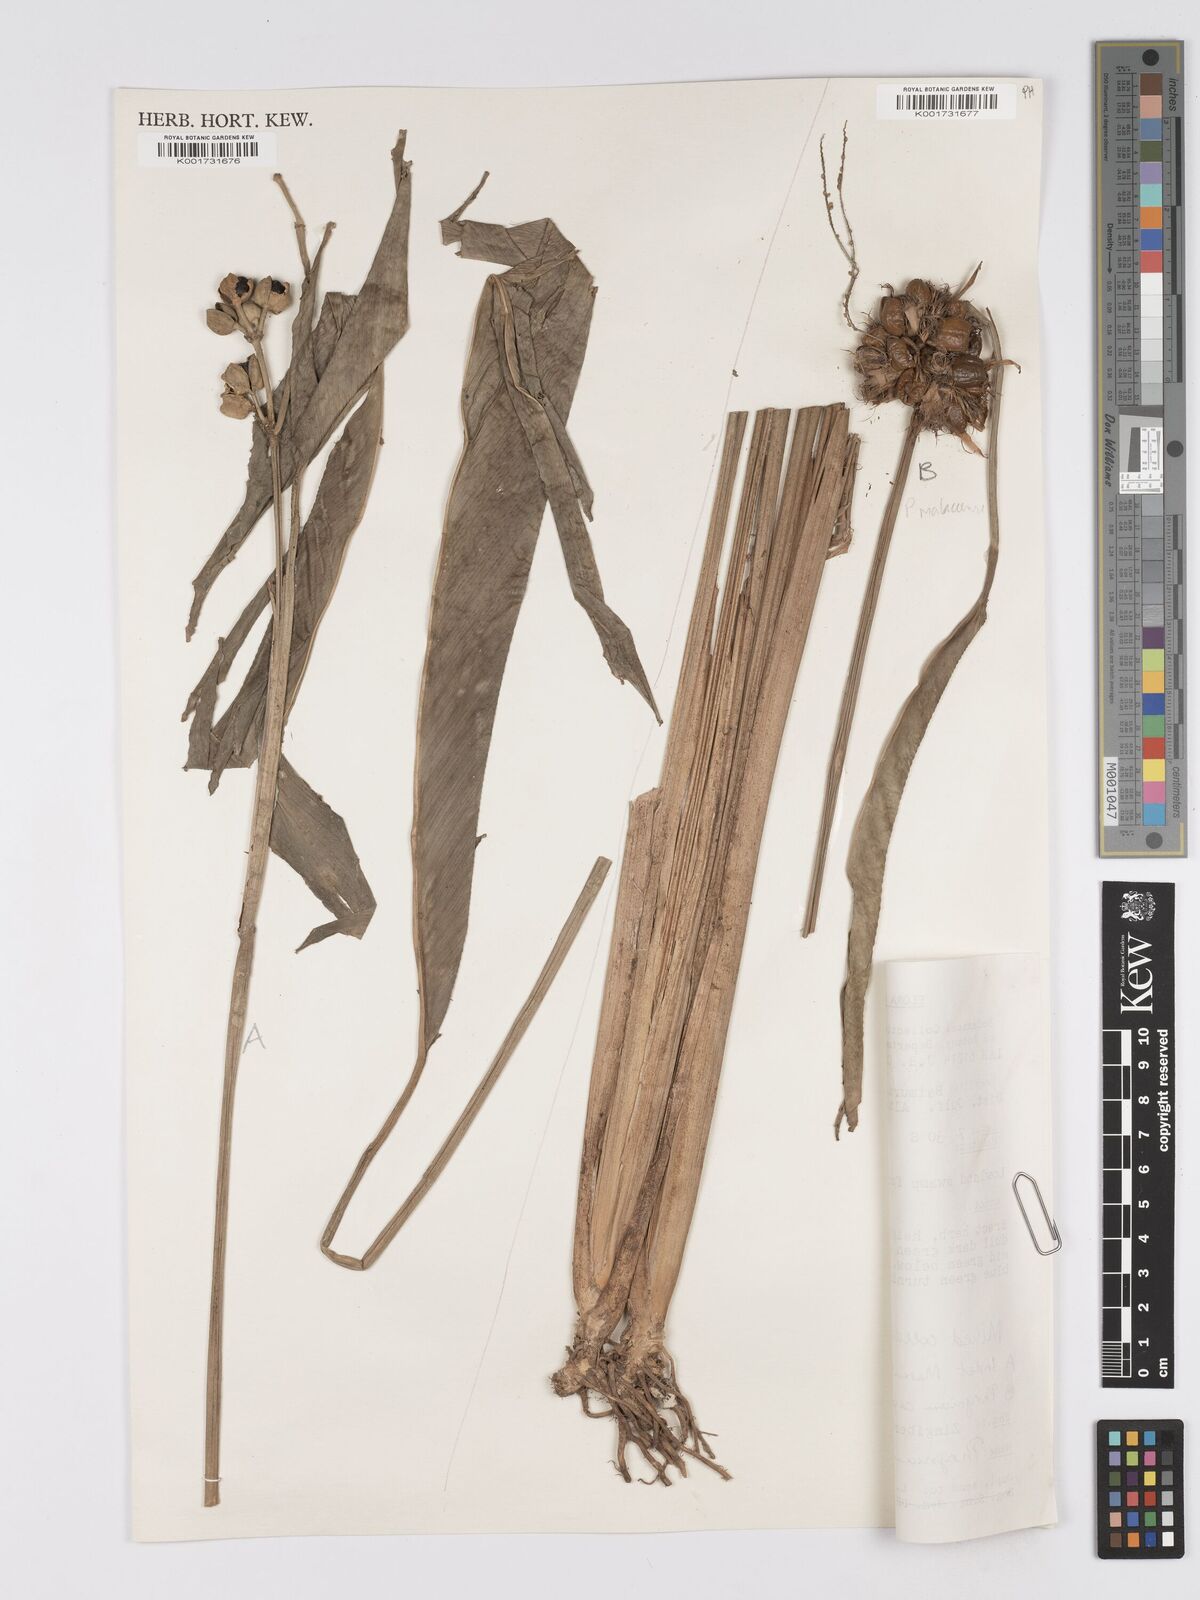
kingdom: Plantae
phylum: Tracheophyta
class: Liliopsida
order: Zingiberales
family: Marantaceae
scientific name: Marantaceae
